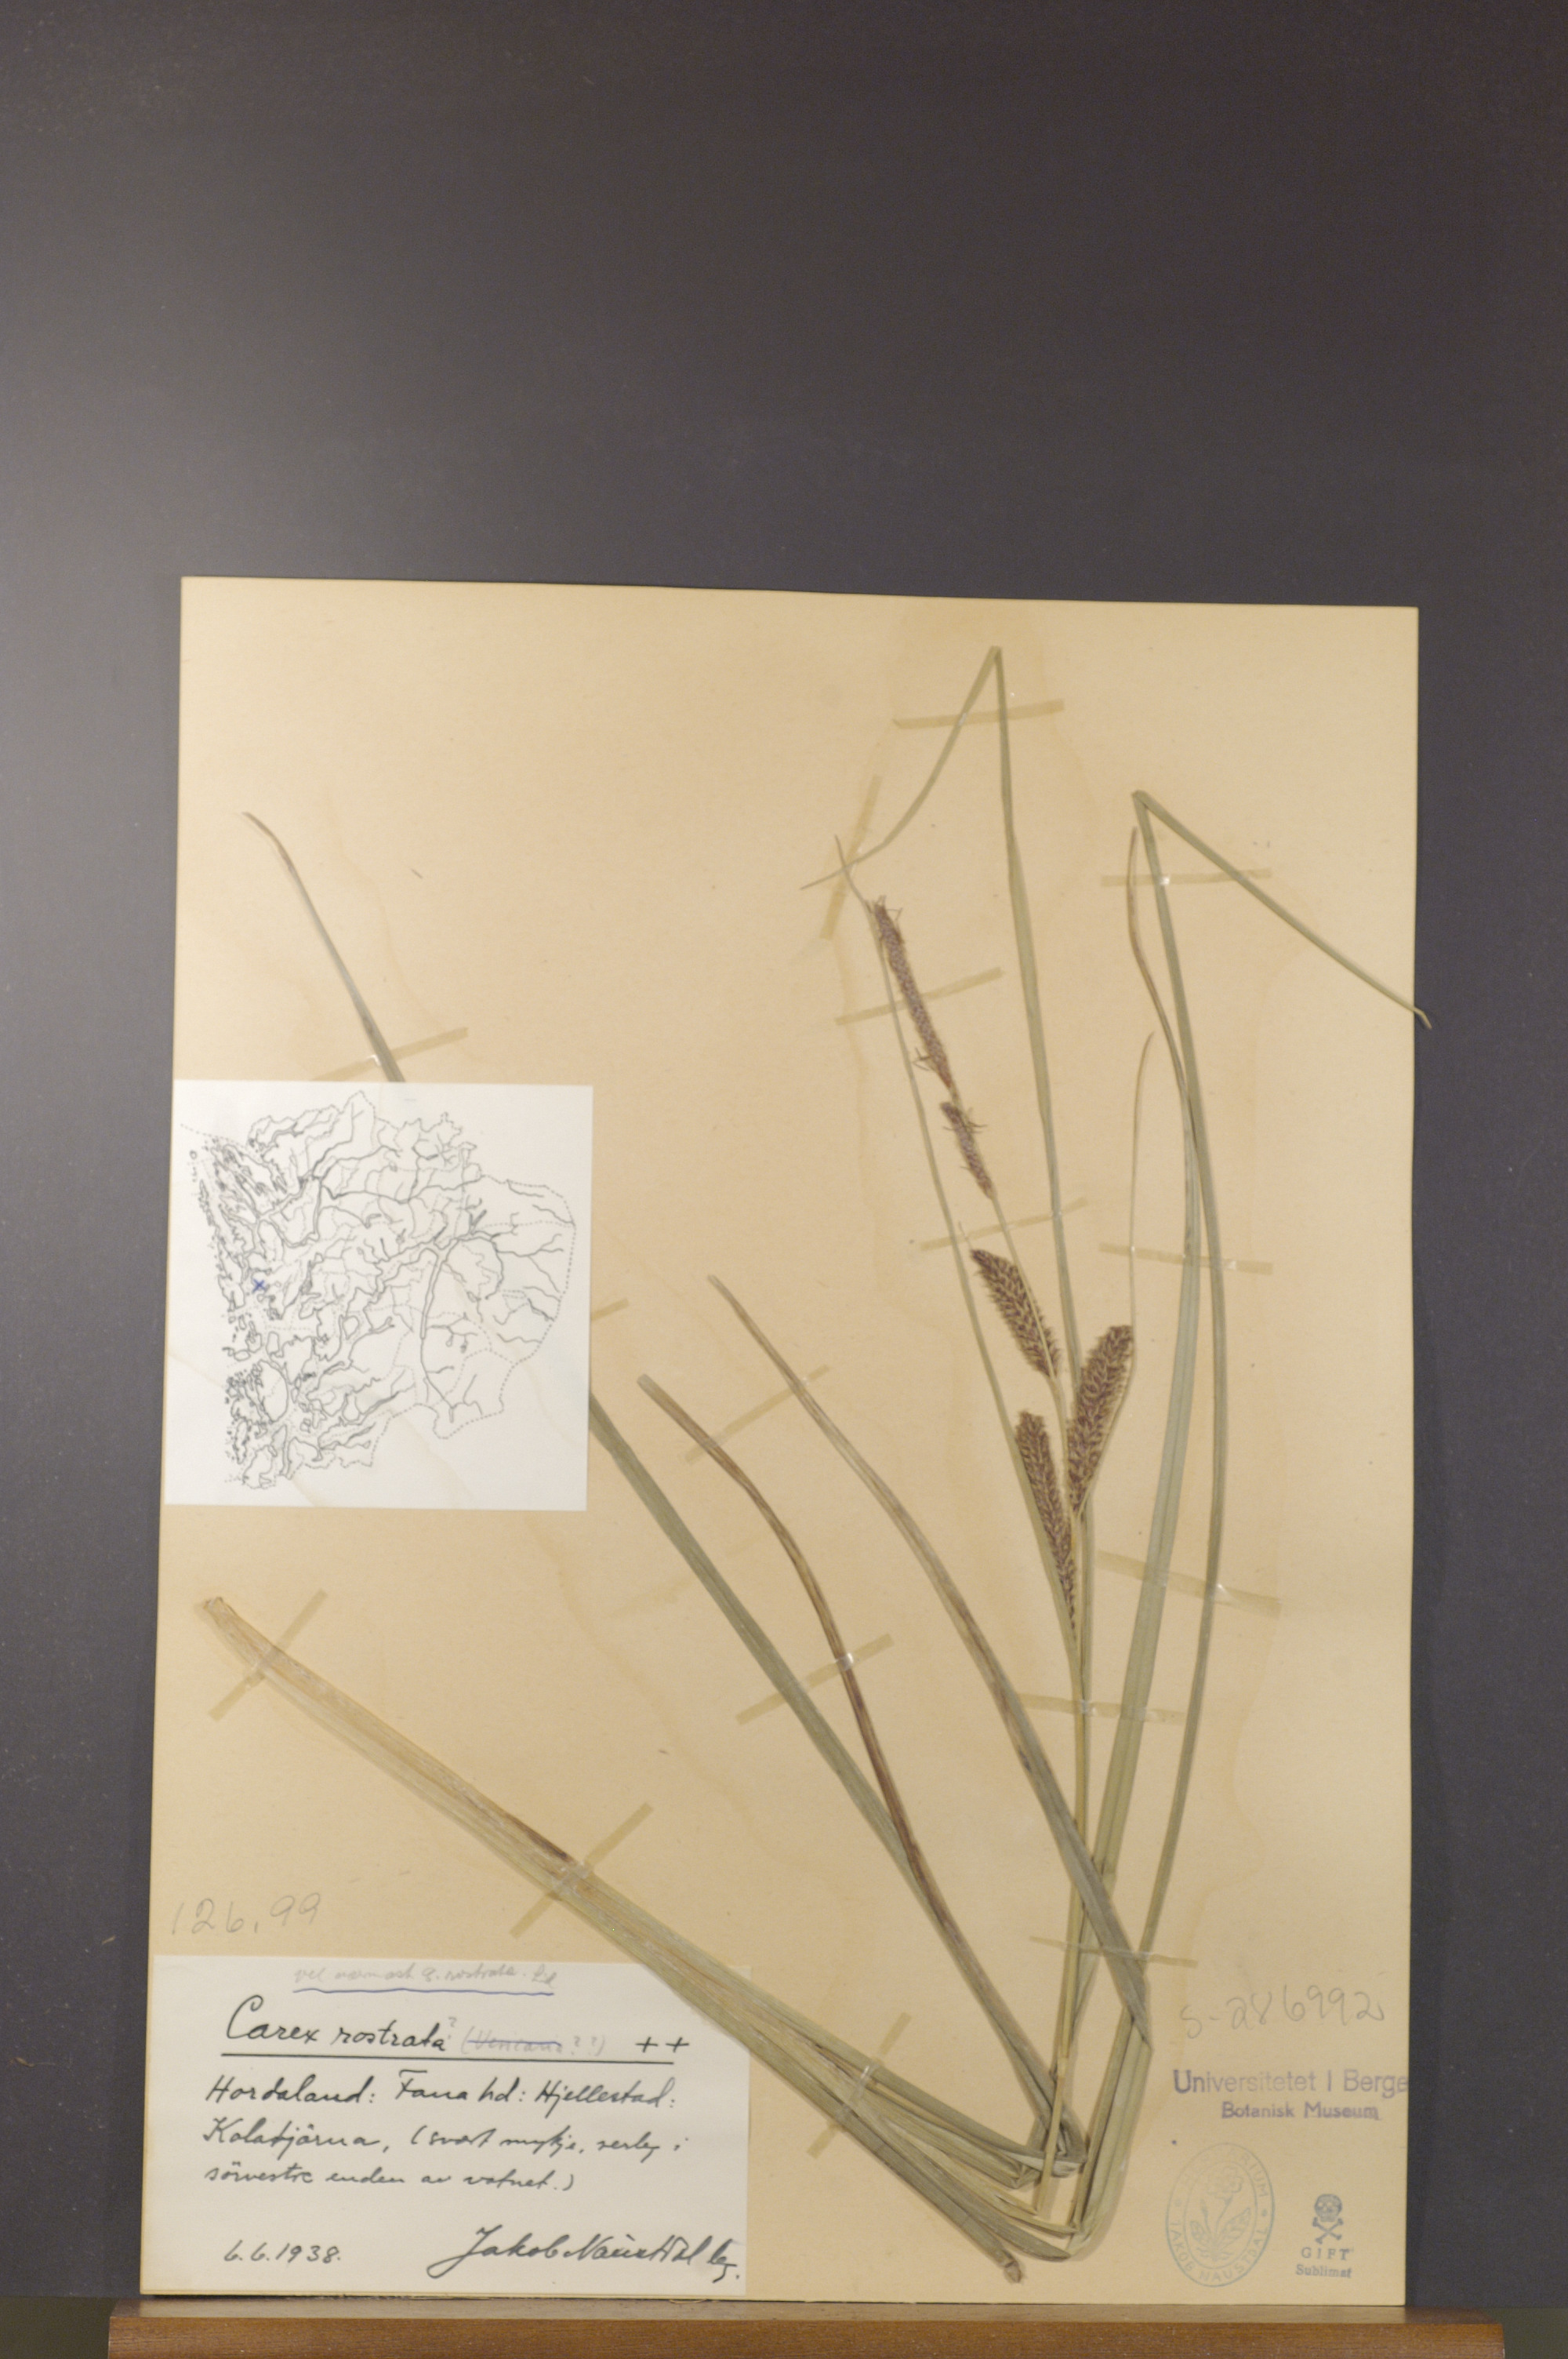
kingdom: Plantae
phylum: Tracheophyta
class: Liliopsida
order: Poales
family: Cyperaceae
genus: Carex
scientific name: Carex rostrata
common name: Bottle sedge
